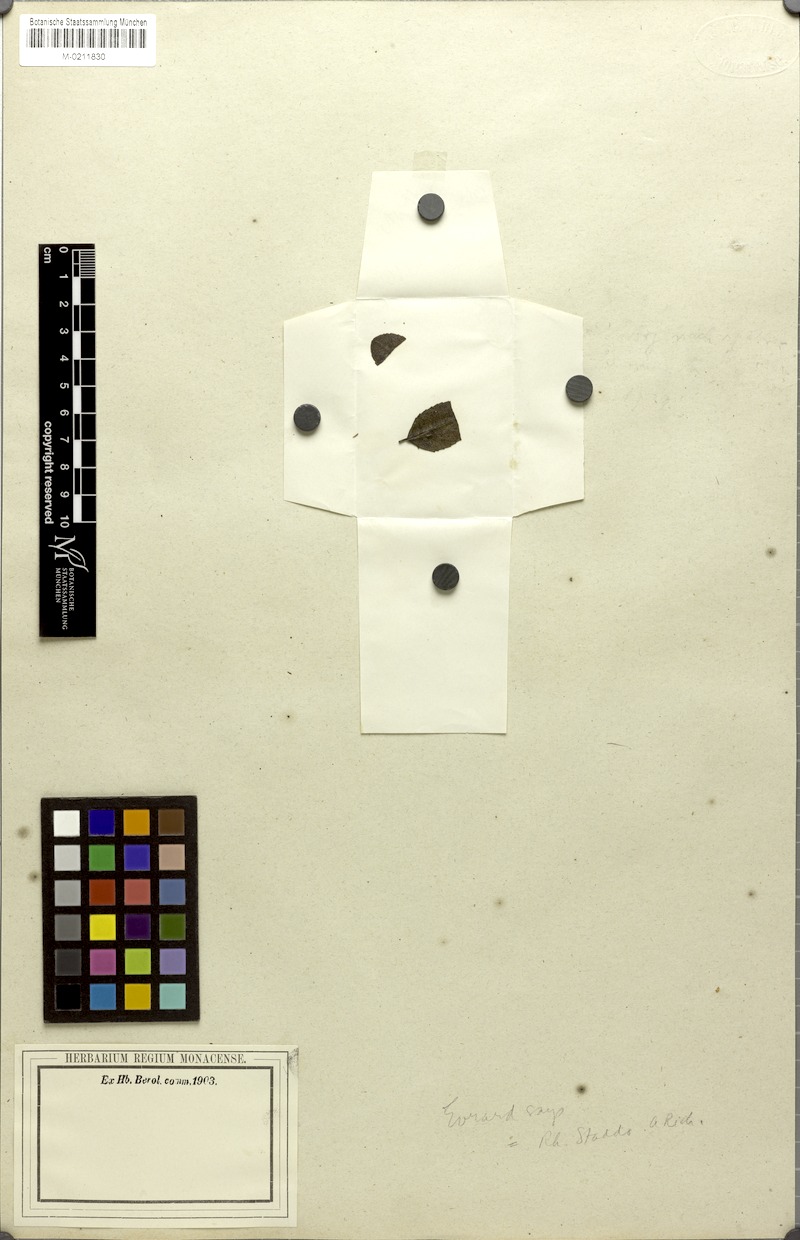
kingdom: Plantae
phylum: Tracheophyta
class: Magnoliopsida
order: Rosales
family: Rhamnaceae
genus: Rhamnus
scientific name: Rhamnus staddo
